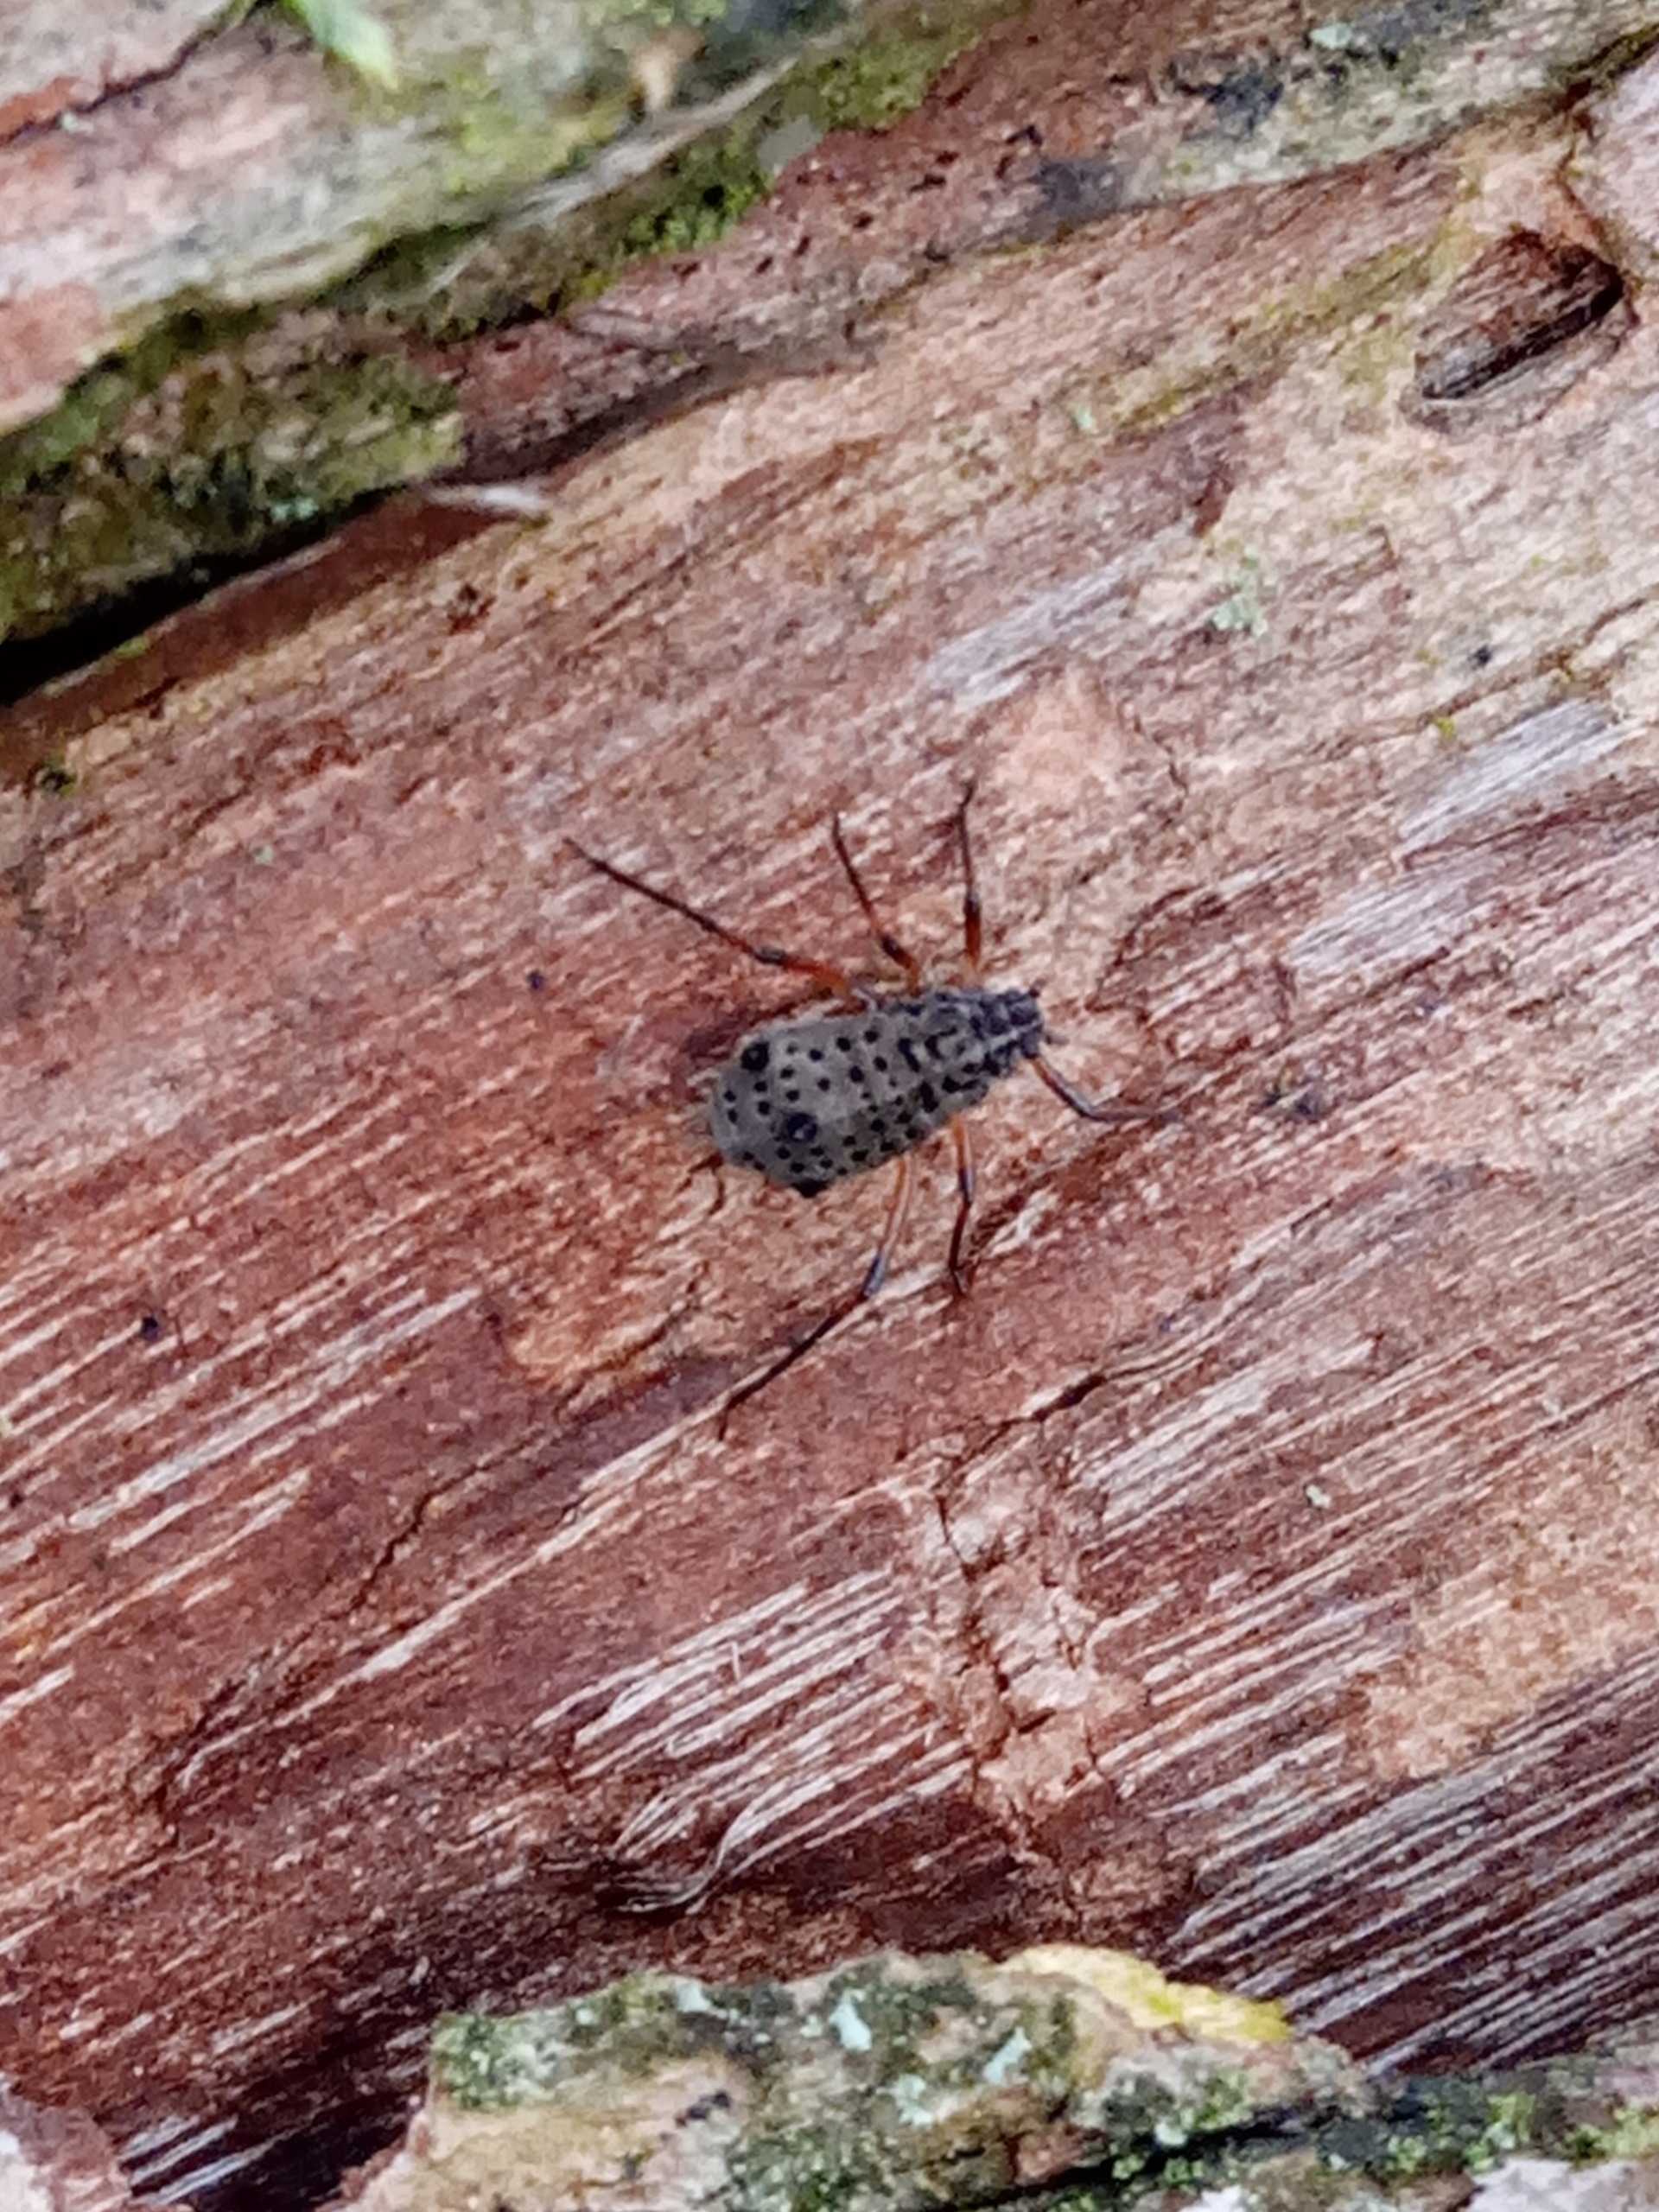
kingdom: Animalia
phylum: Arthropoda
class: Insecta
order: Hemiptera
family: Aphididae
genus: Tuberolachnus
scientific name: Tuberolachnus salignus
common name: Pilegrenbladlus
